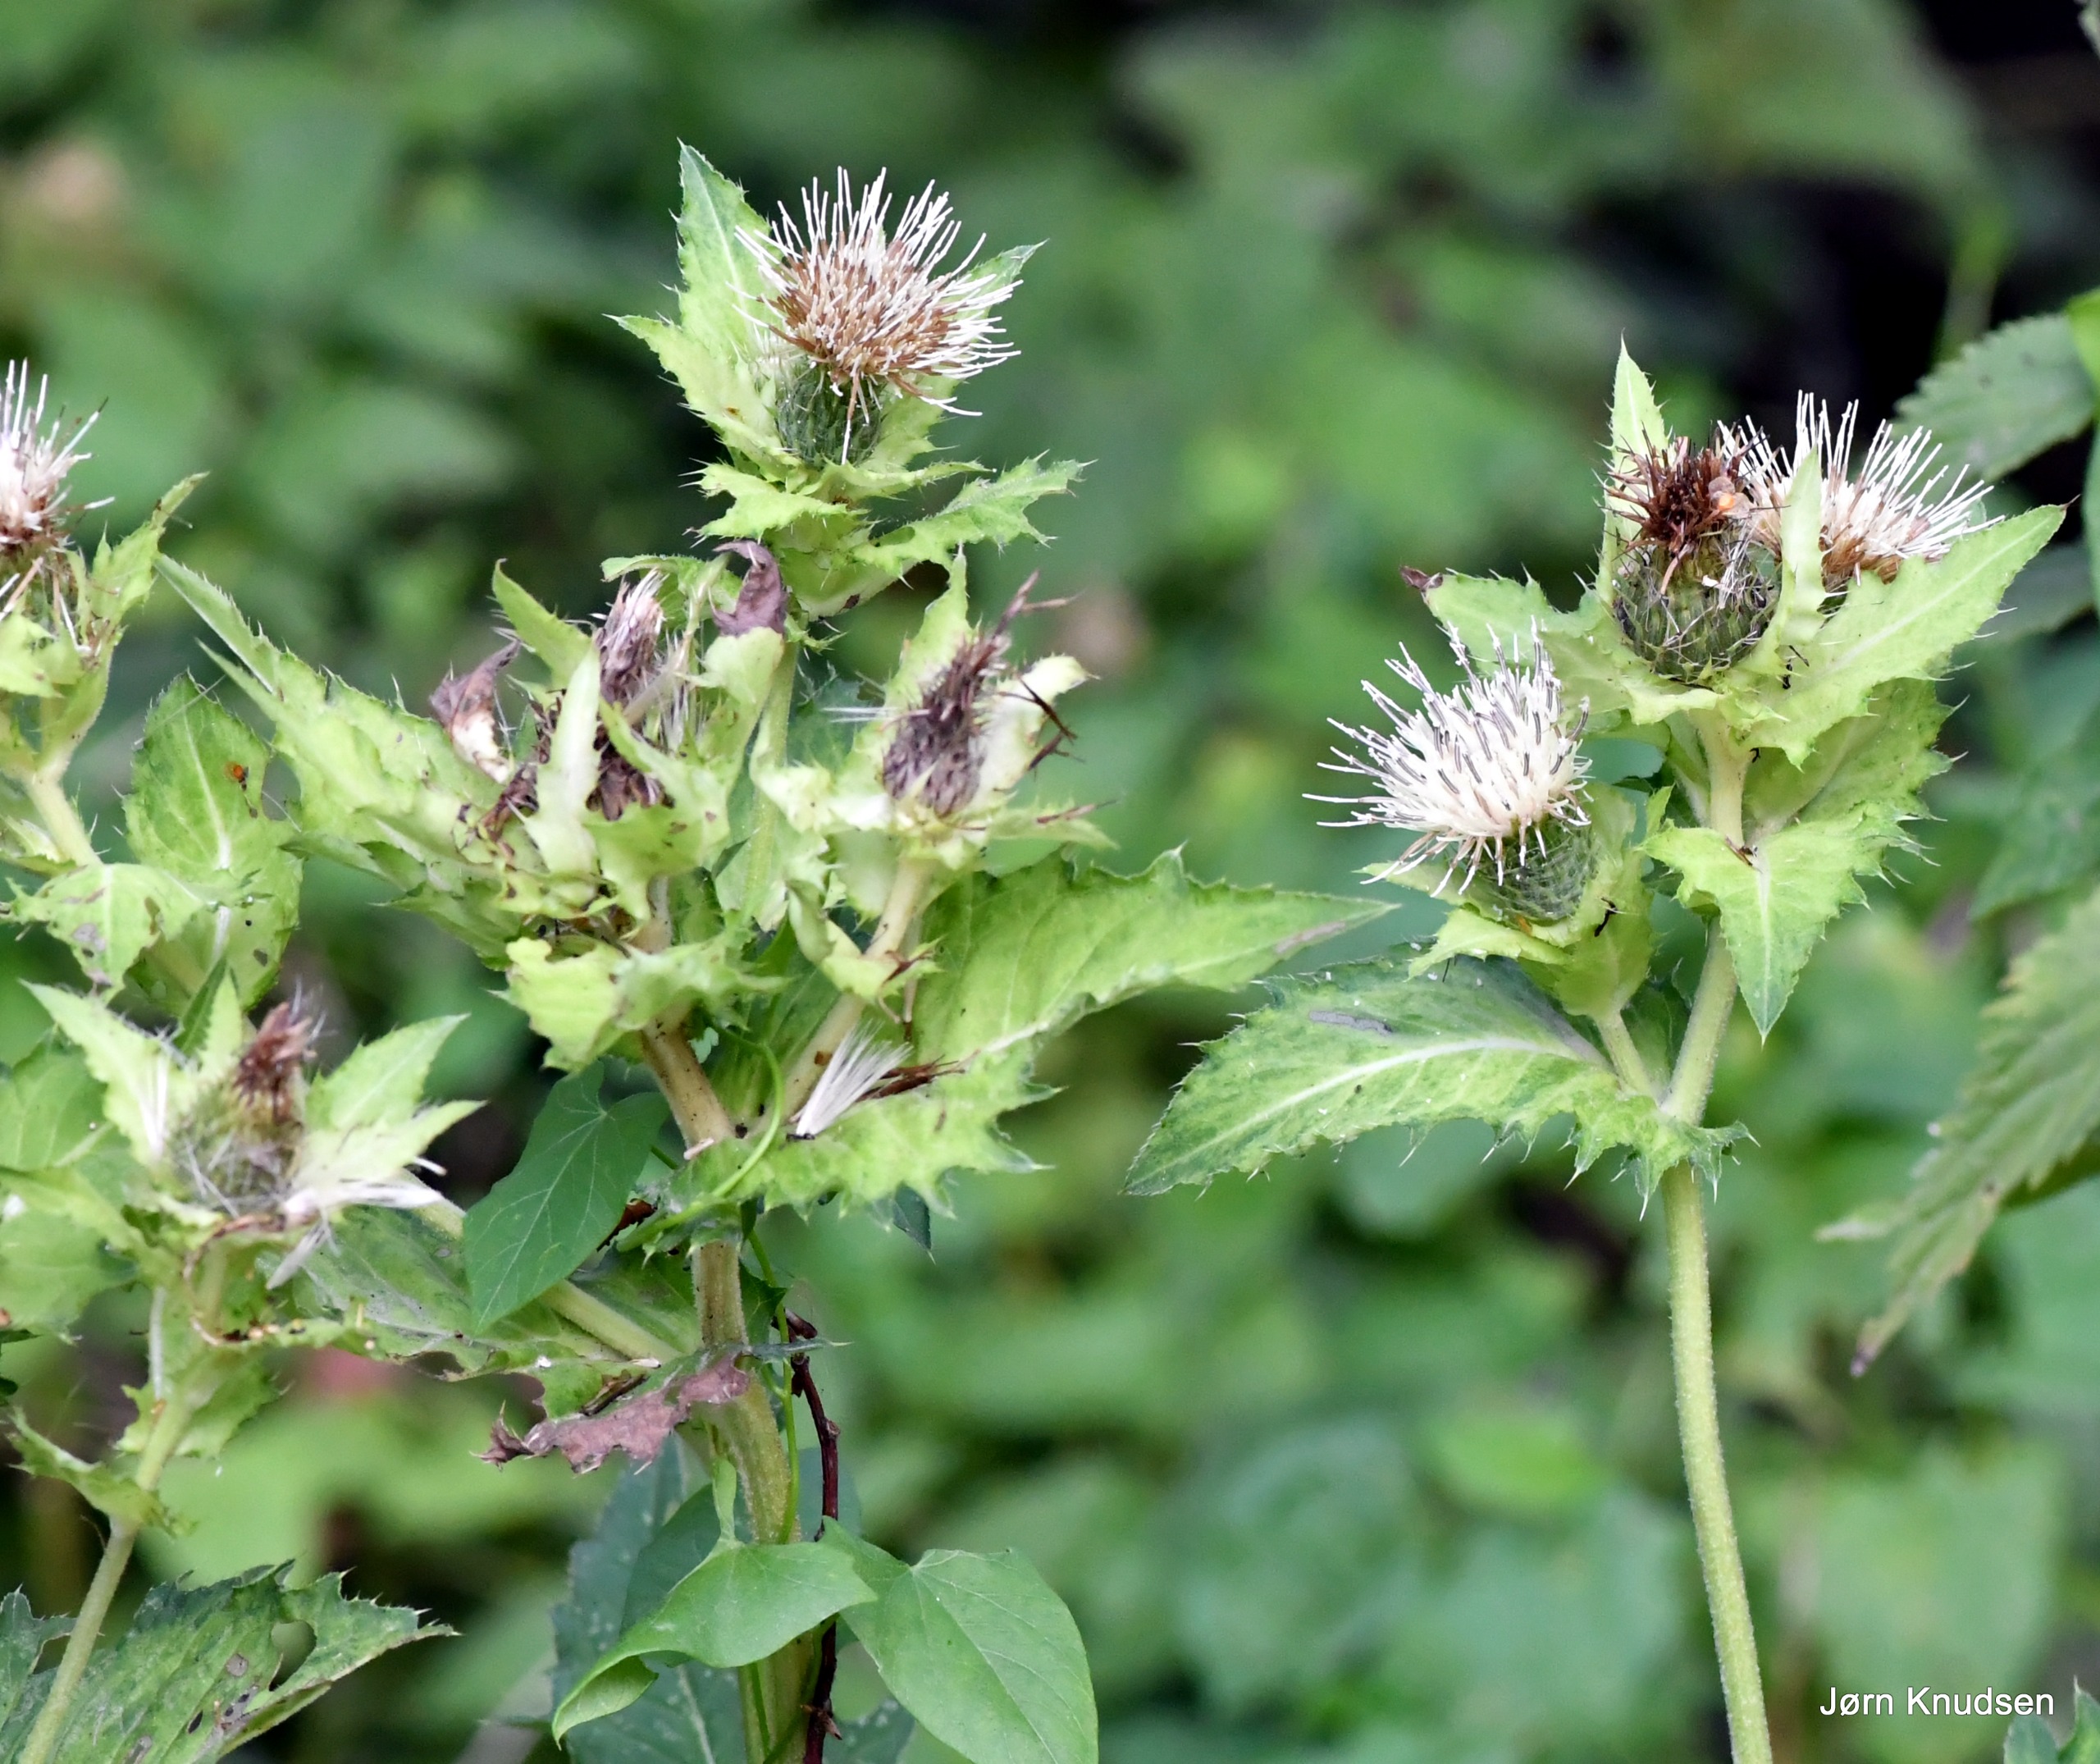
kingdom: Plantae
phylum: Tracheophyta
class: Magnoliopsida
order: Asterales
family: Asteraceae
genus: Cirsium
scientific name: Cirsium oleraceum
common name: Kål-tidsel
